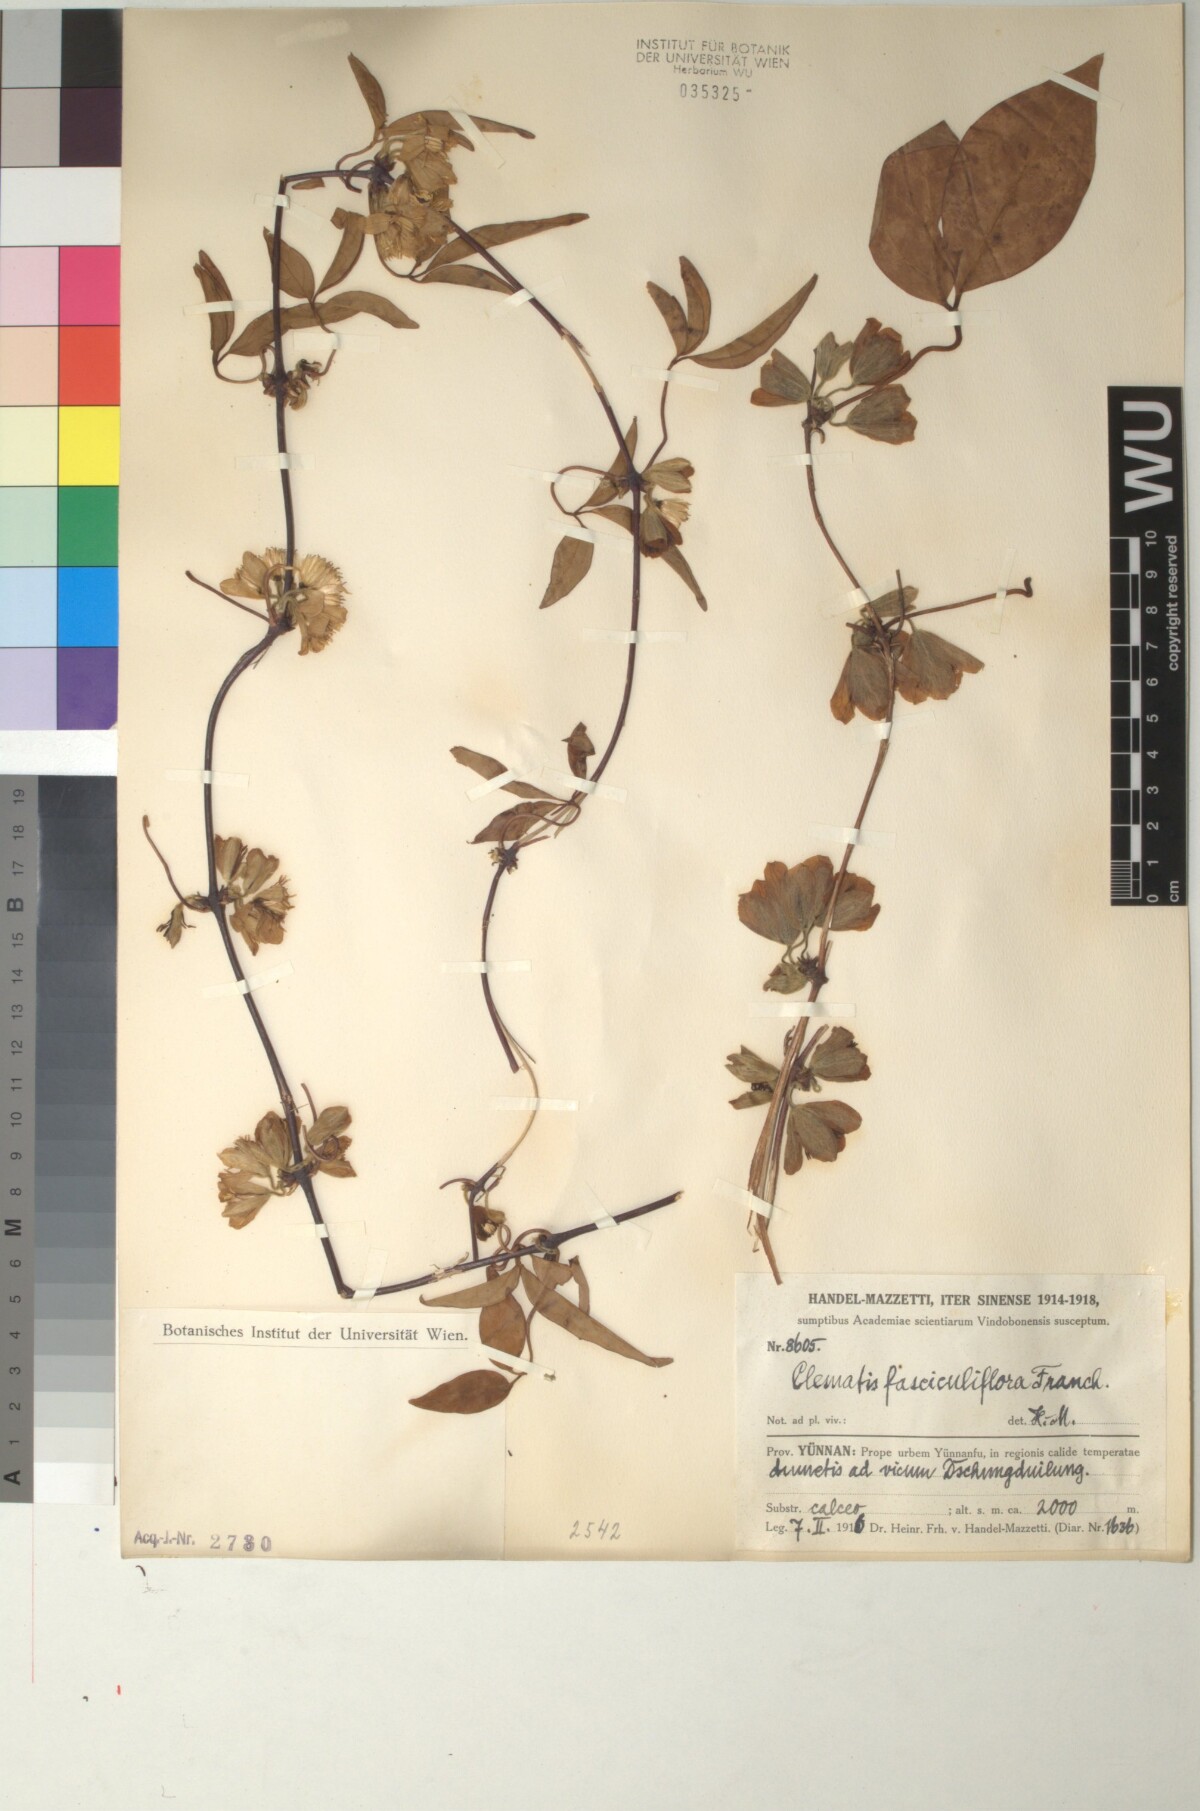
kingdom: Plantae
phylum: Tracheophyta
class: Magnoliopsida
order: Ranunculales
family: Ranunculaceae
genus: Clematis
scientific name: Clematis fasciculiflora
